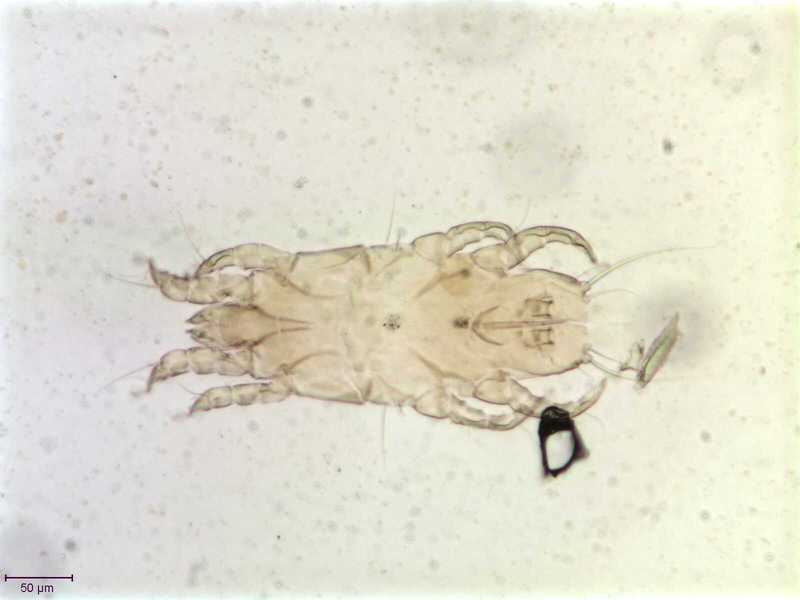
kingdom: Animalia
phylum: Arthropoda
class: Arachnida
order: Sarcoptiformes
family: Proctophyllodidae
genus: Proctophyllodes
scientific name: Proctophyllodes corvorum
